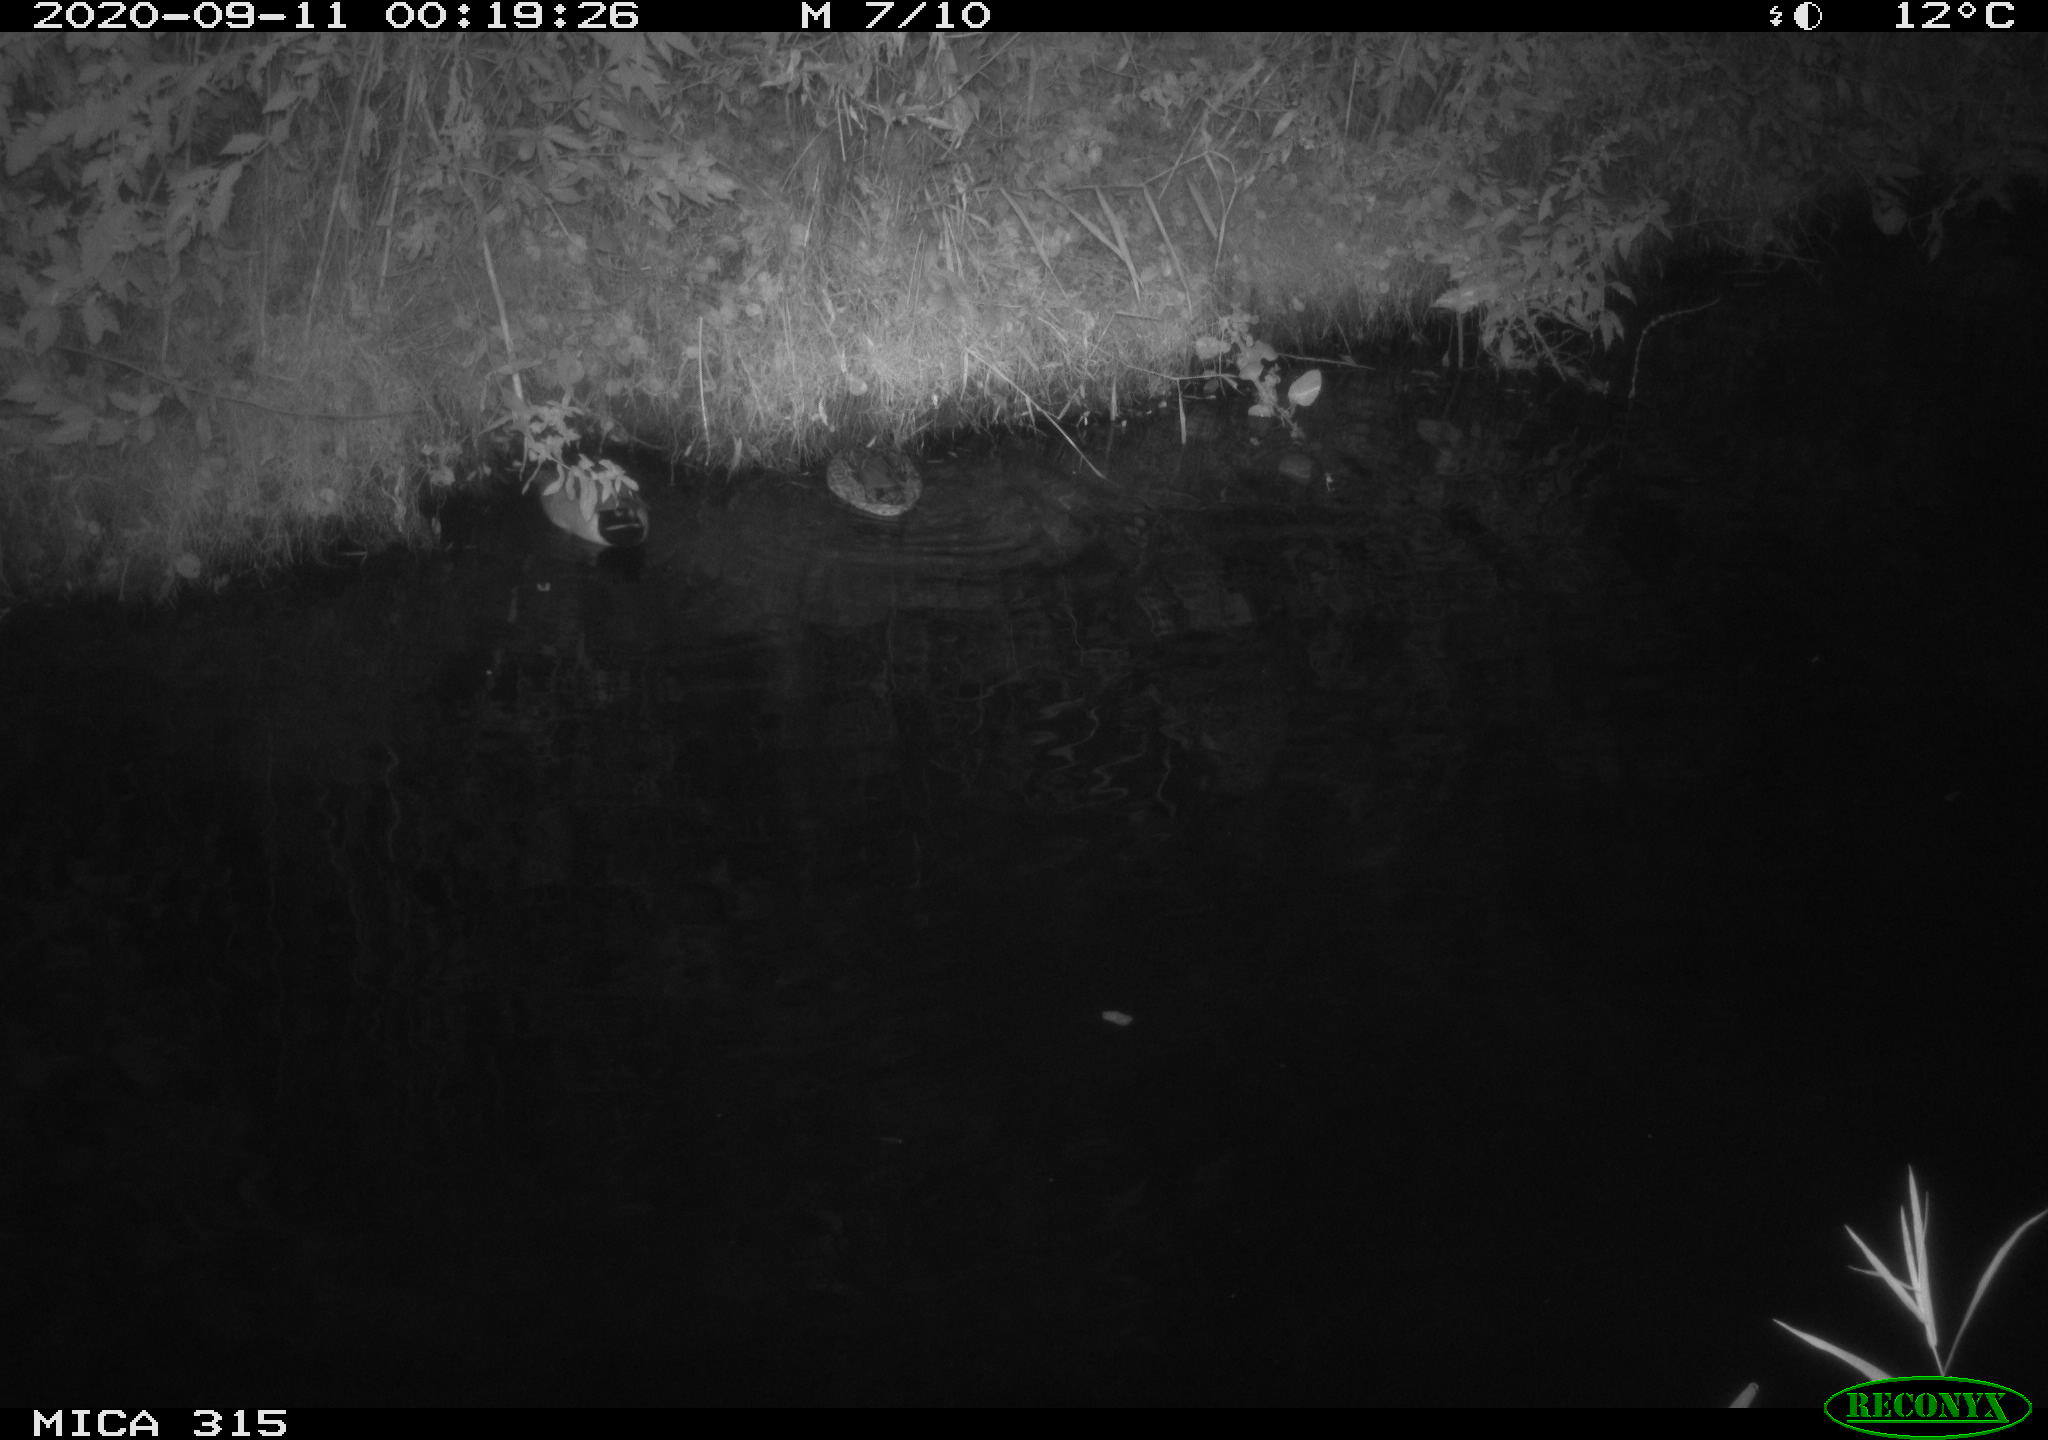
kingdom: Animalia
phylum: Chordata
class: Aves
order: Anseriformes
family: Anatidae
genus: Anas
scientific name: Anas platyrhynchos
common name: Mallard
